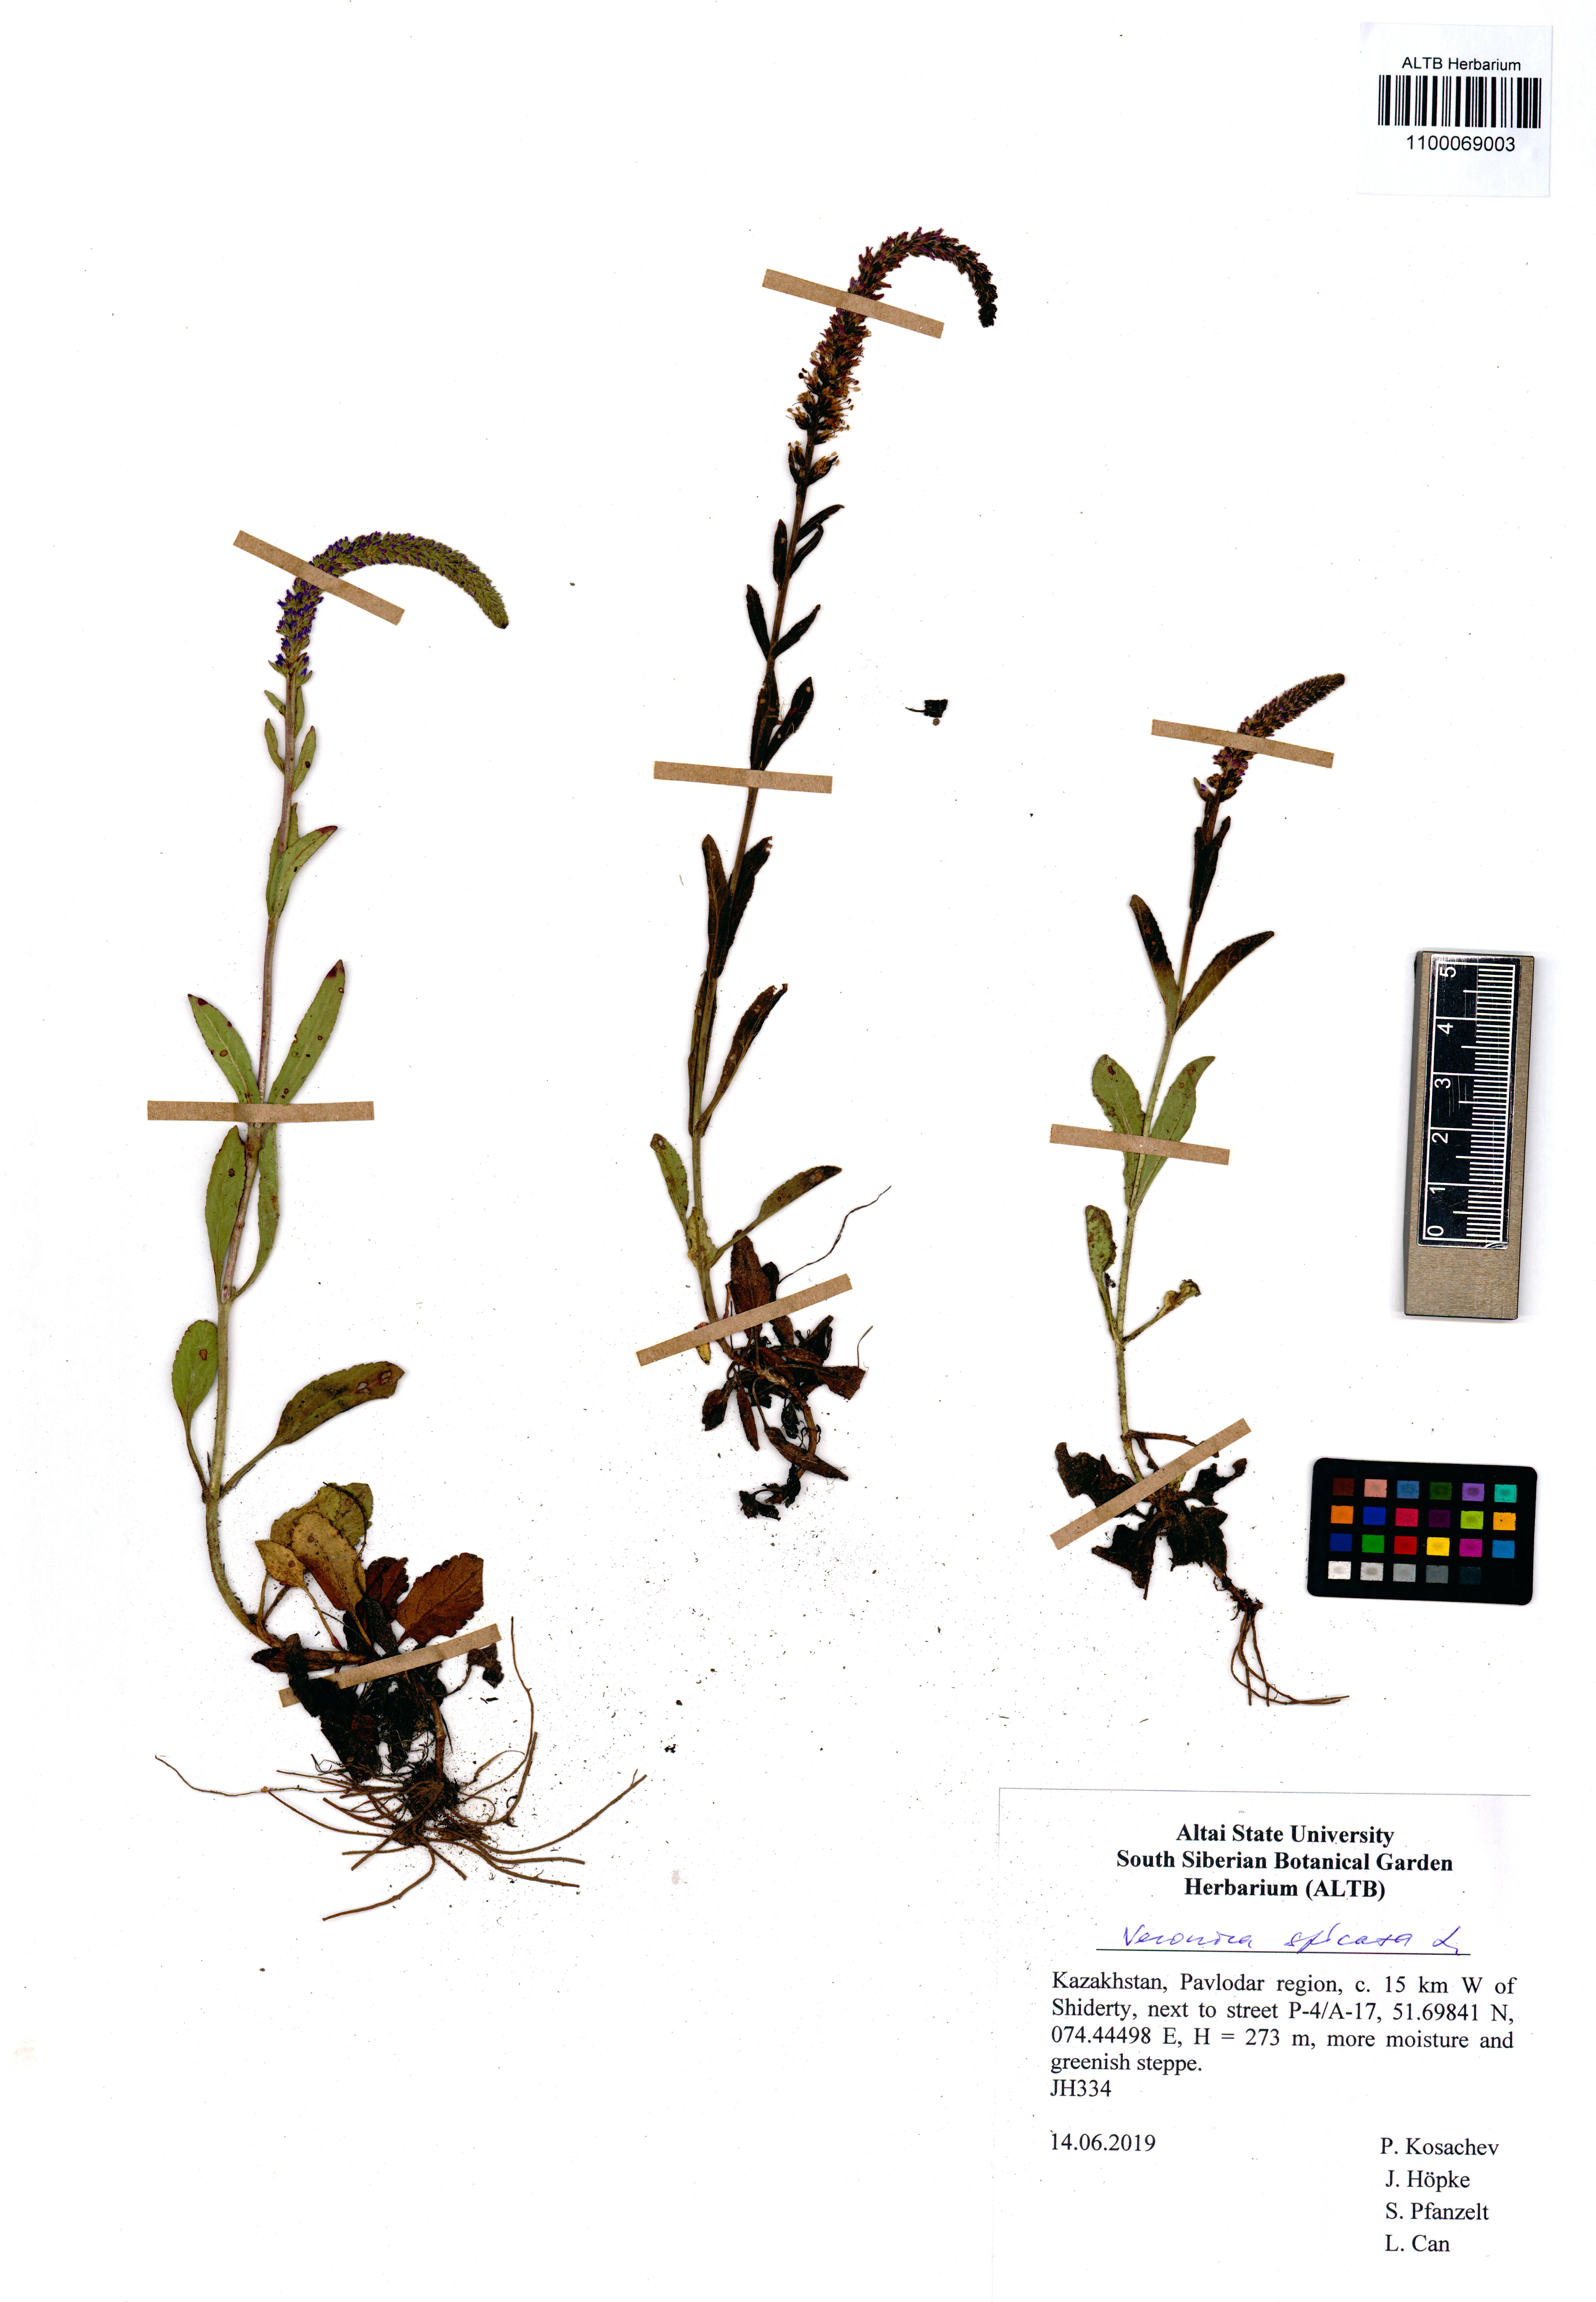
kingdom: Plantae
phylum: Tracheophyta
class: Magnoliopsida
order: Lamiales
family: Plantaginaceae
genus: Veronica
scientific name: Veronica spicata
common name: Spiked speedwell
